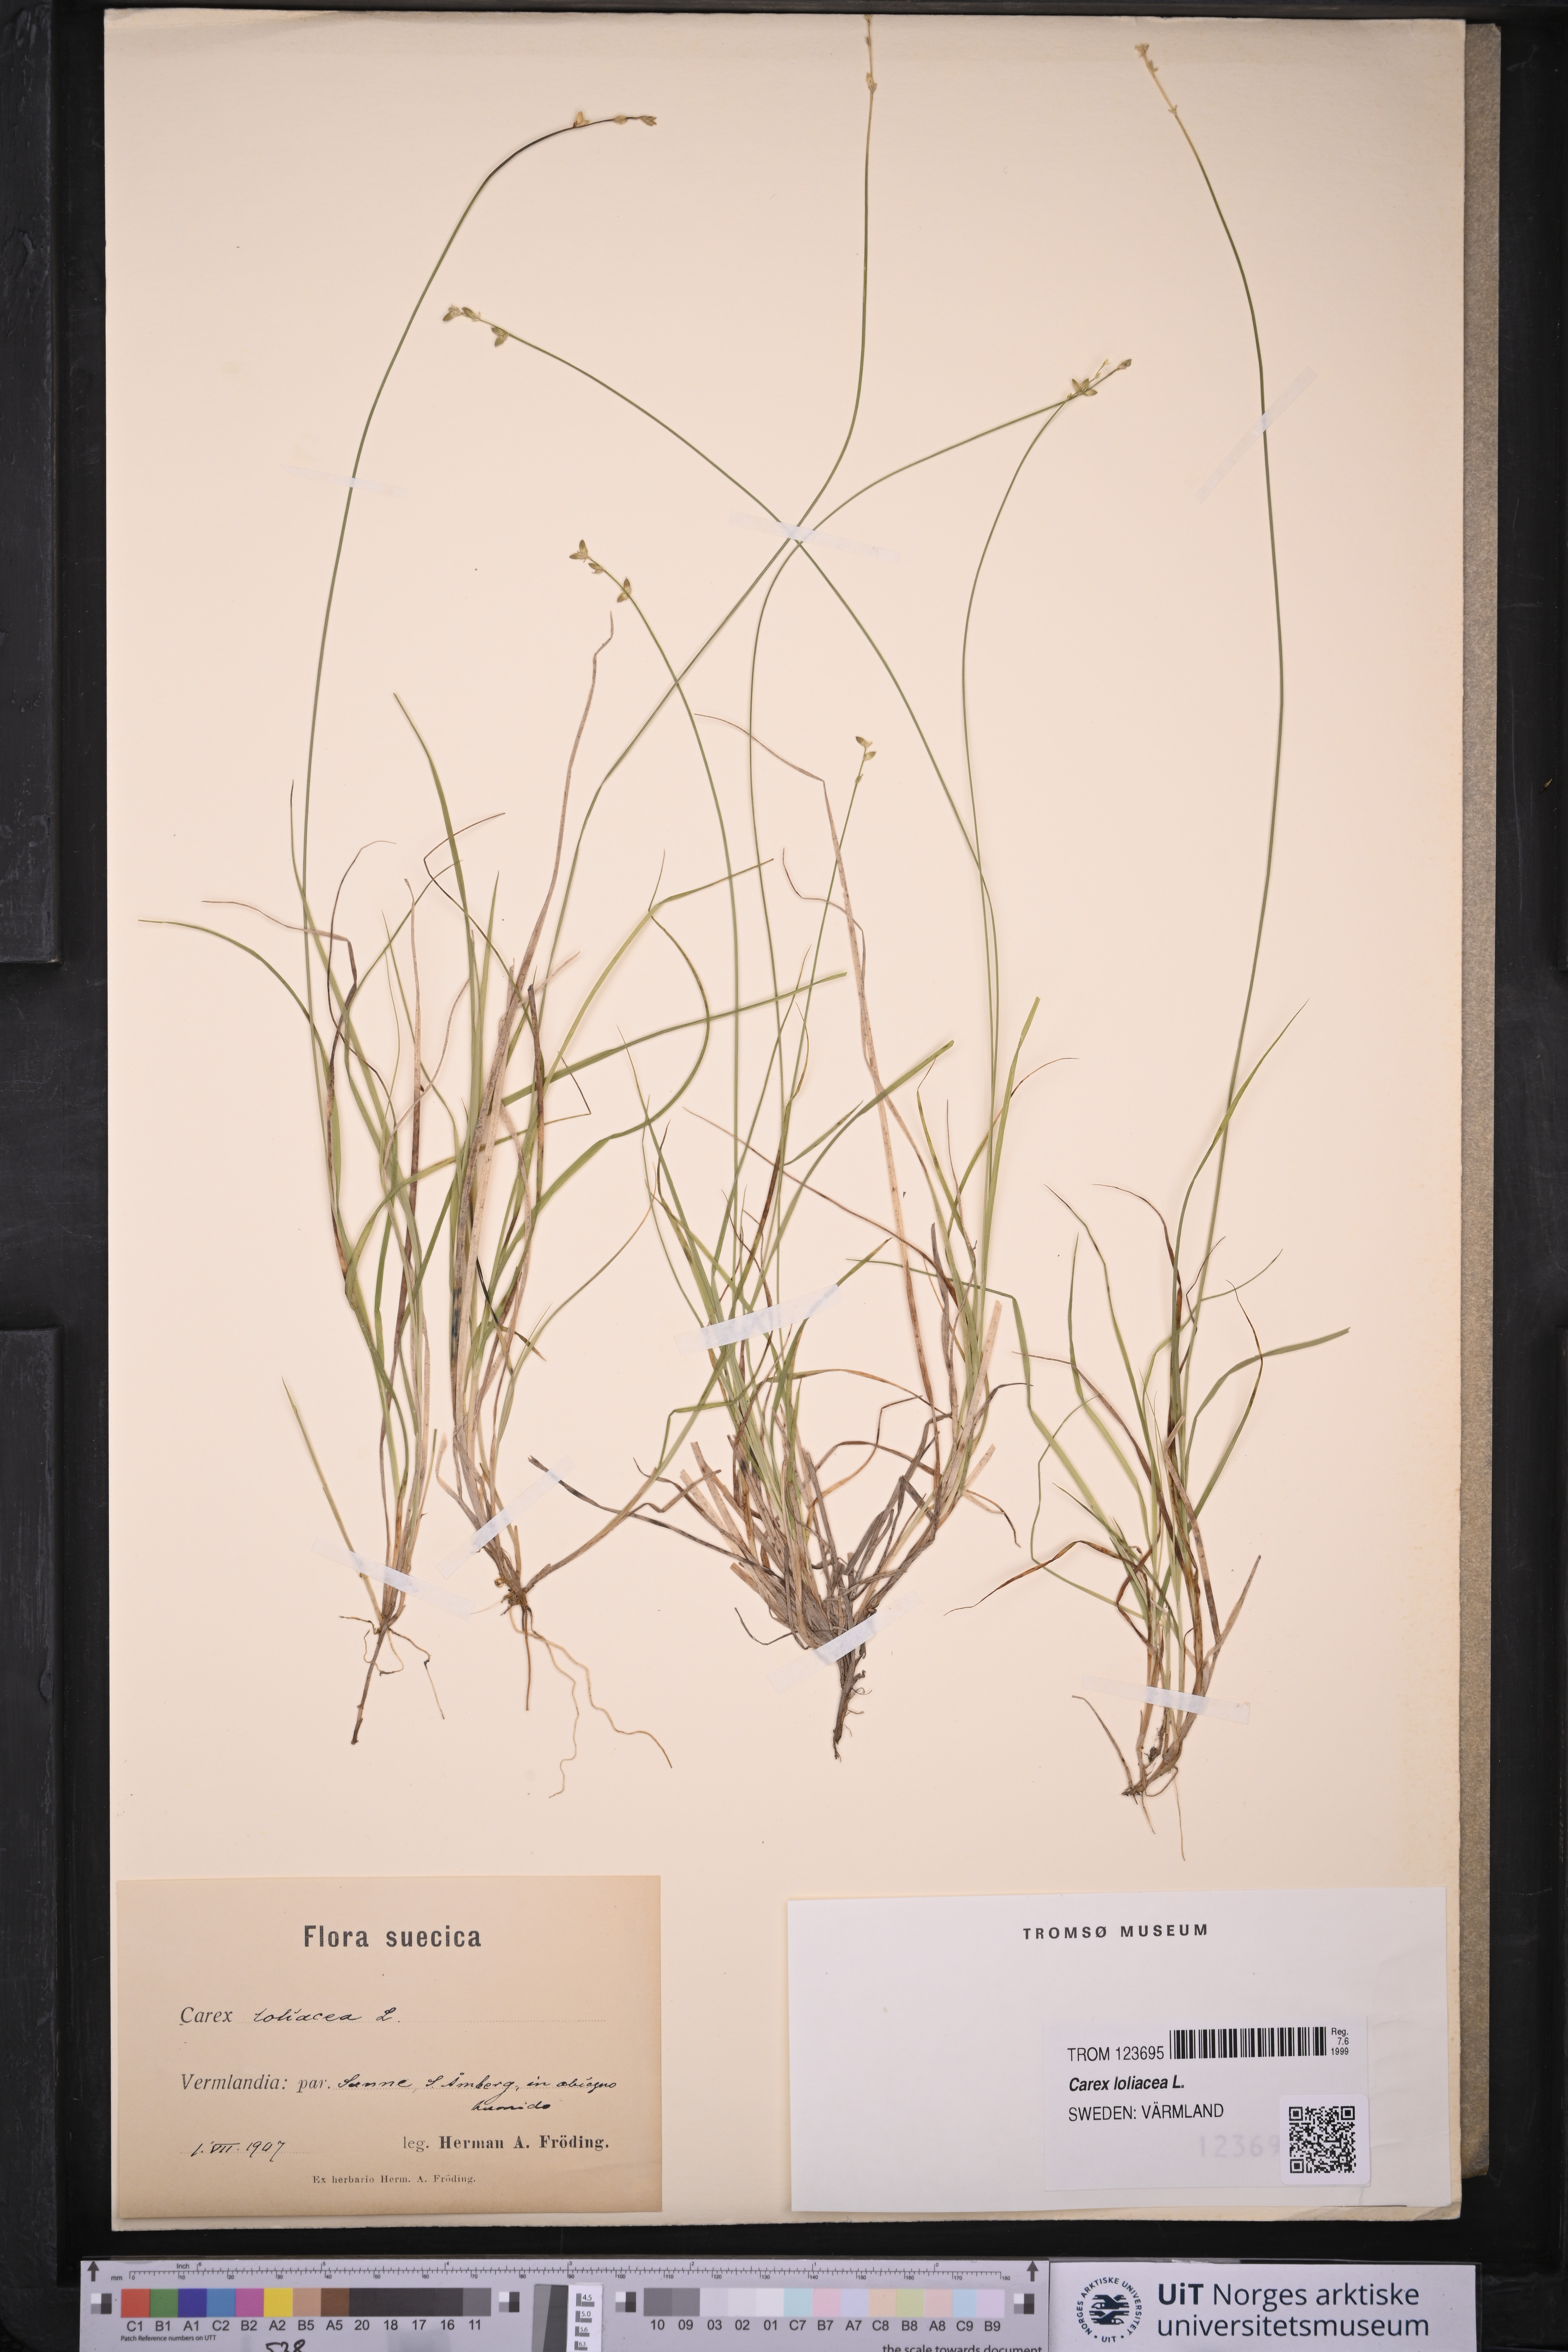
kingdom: Plantae
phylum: Tracheophyta
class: Liliopsida
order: Poales
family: Cyperaceae
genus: Carex
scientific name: Carex loliacea
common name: Ryegrass sedge
